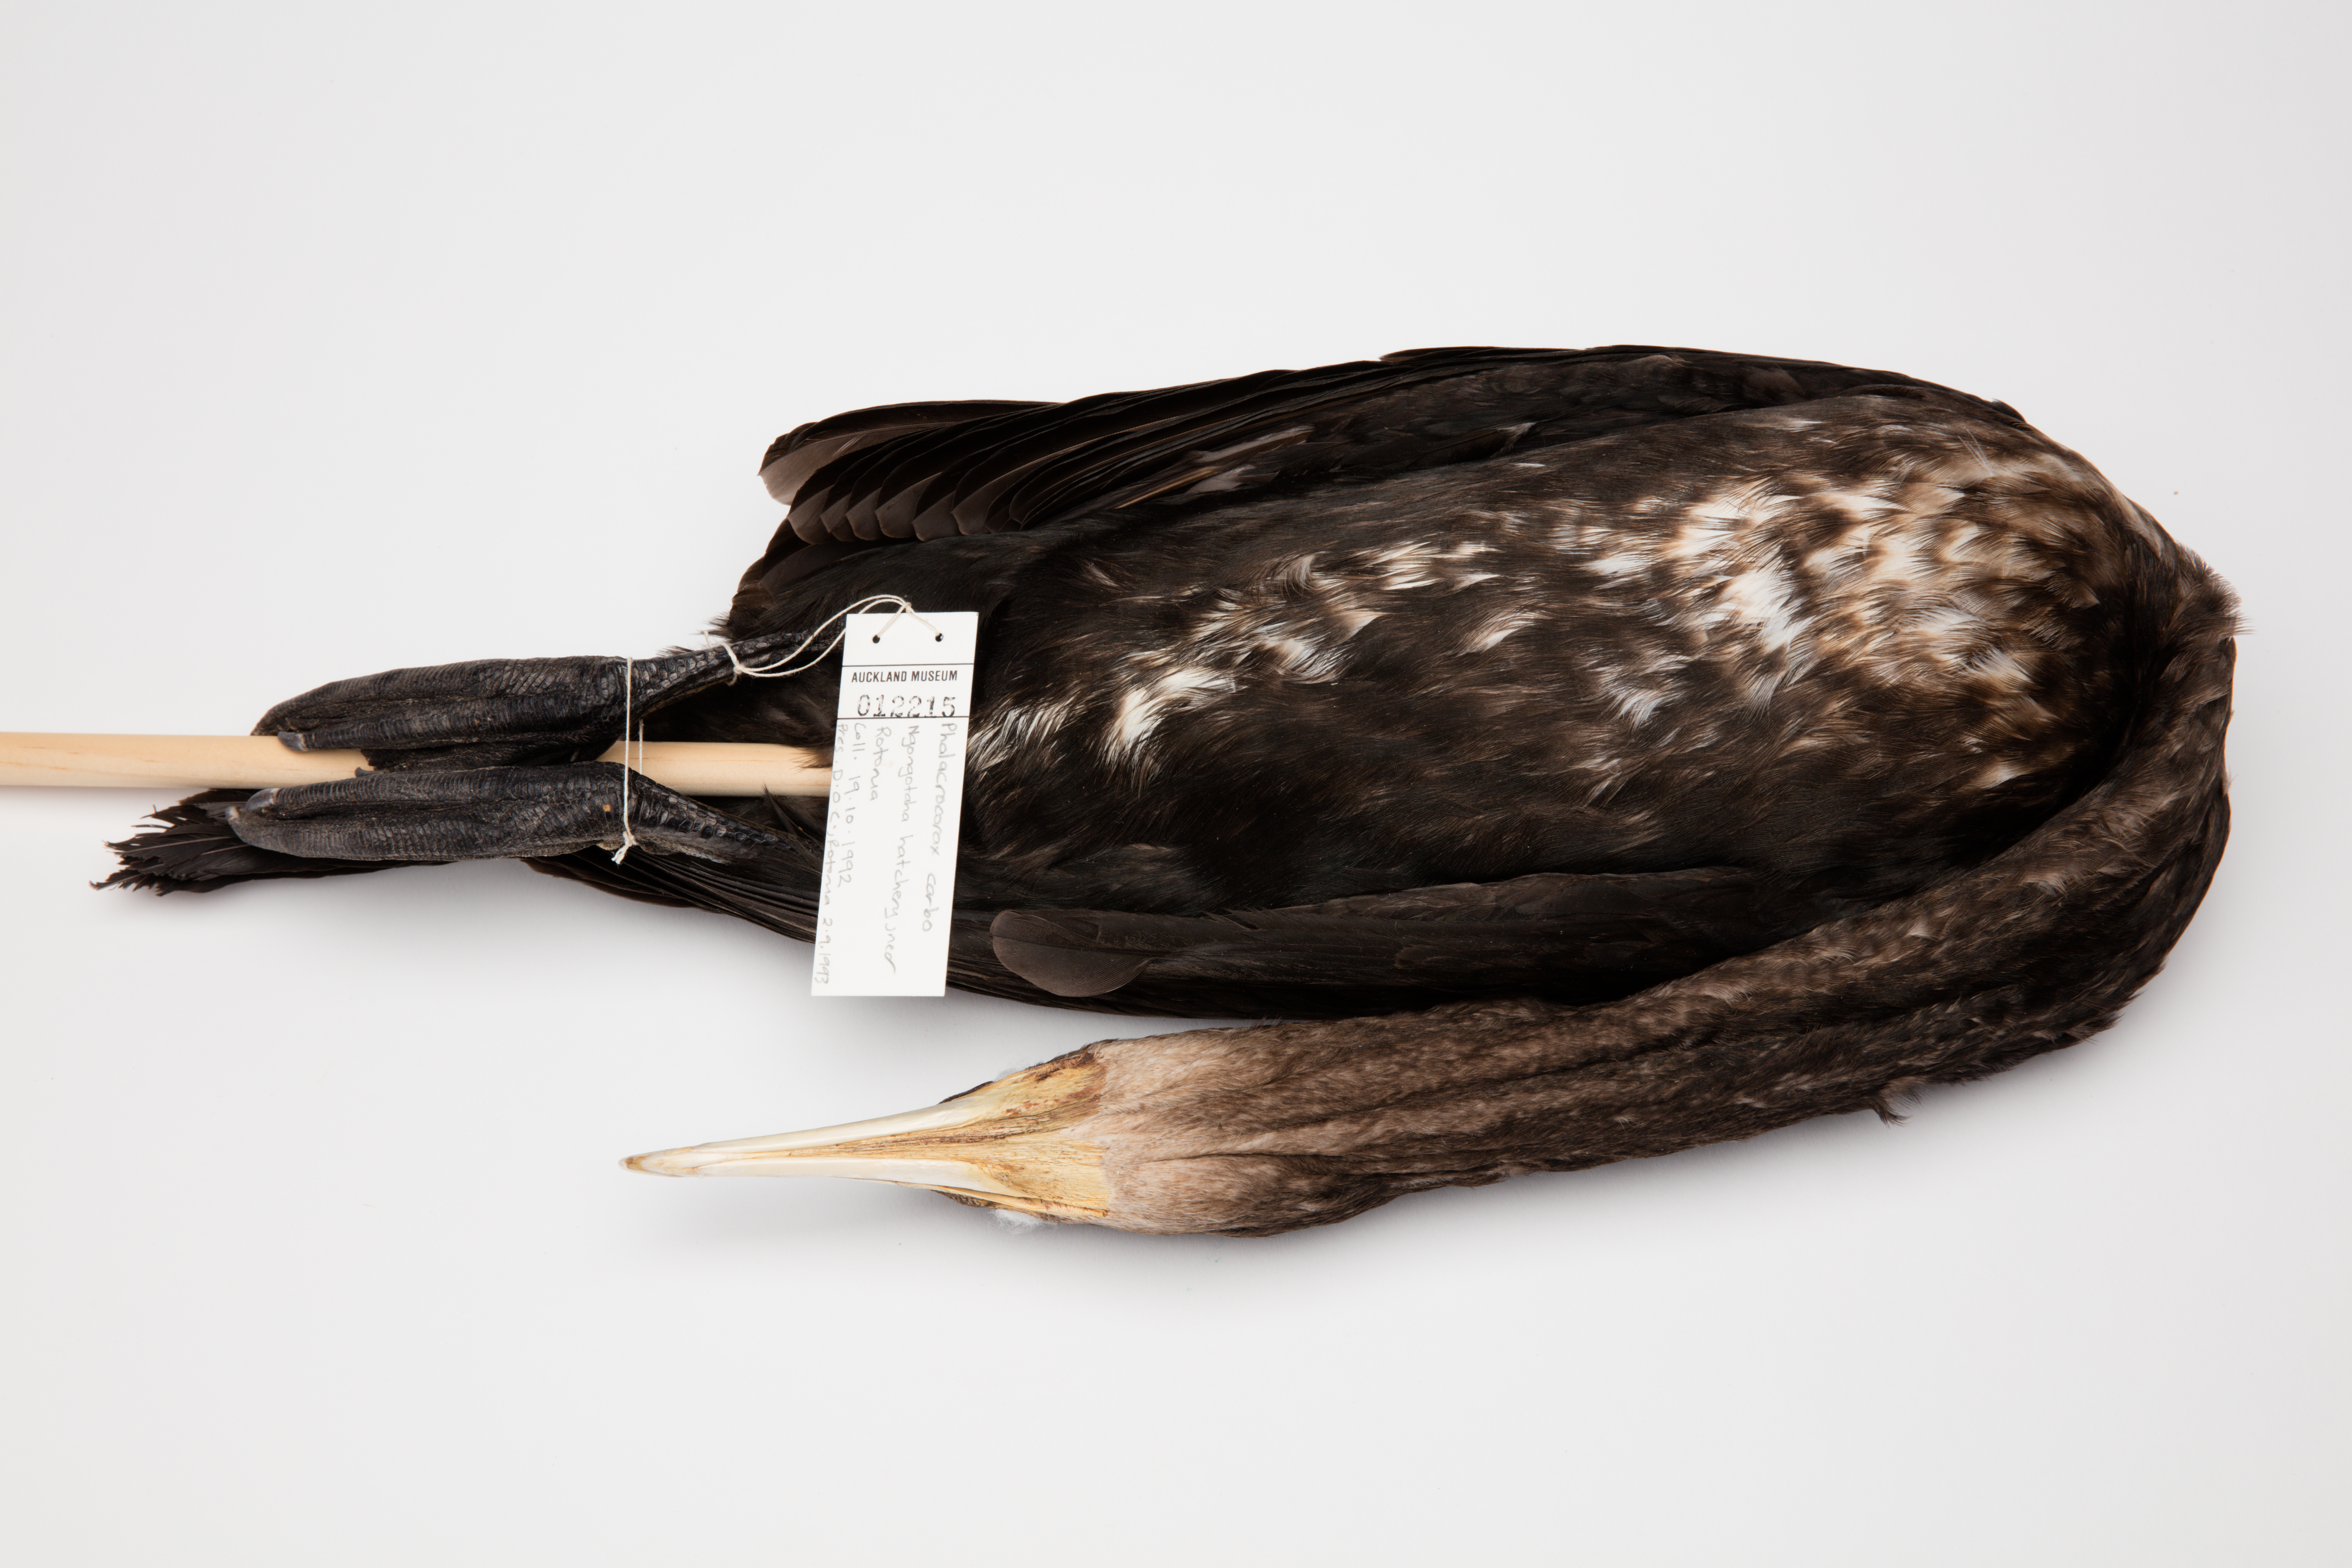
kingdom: Animalia
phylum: Chordata
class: Aves
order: Suliformes
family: Phalacrocoracidae
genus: Phalacrocorax
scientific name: Phalacrocorax carbo
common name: Great cormorant
